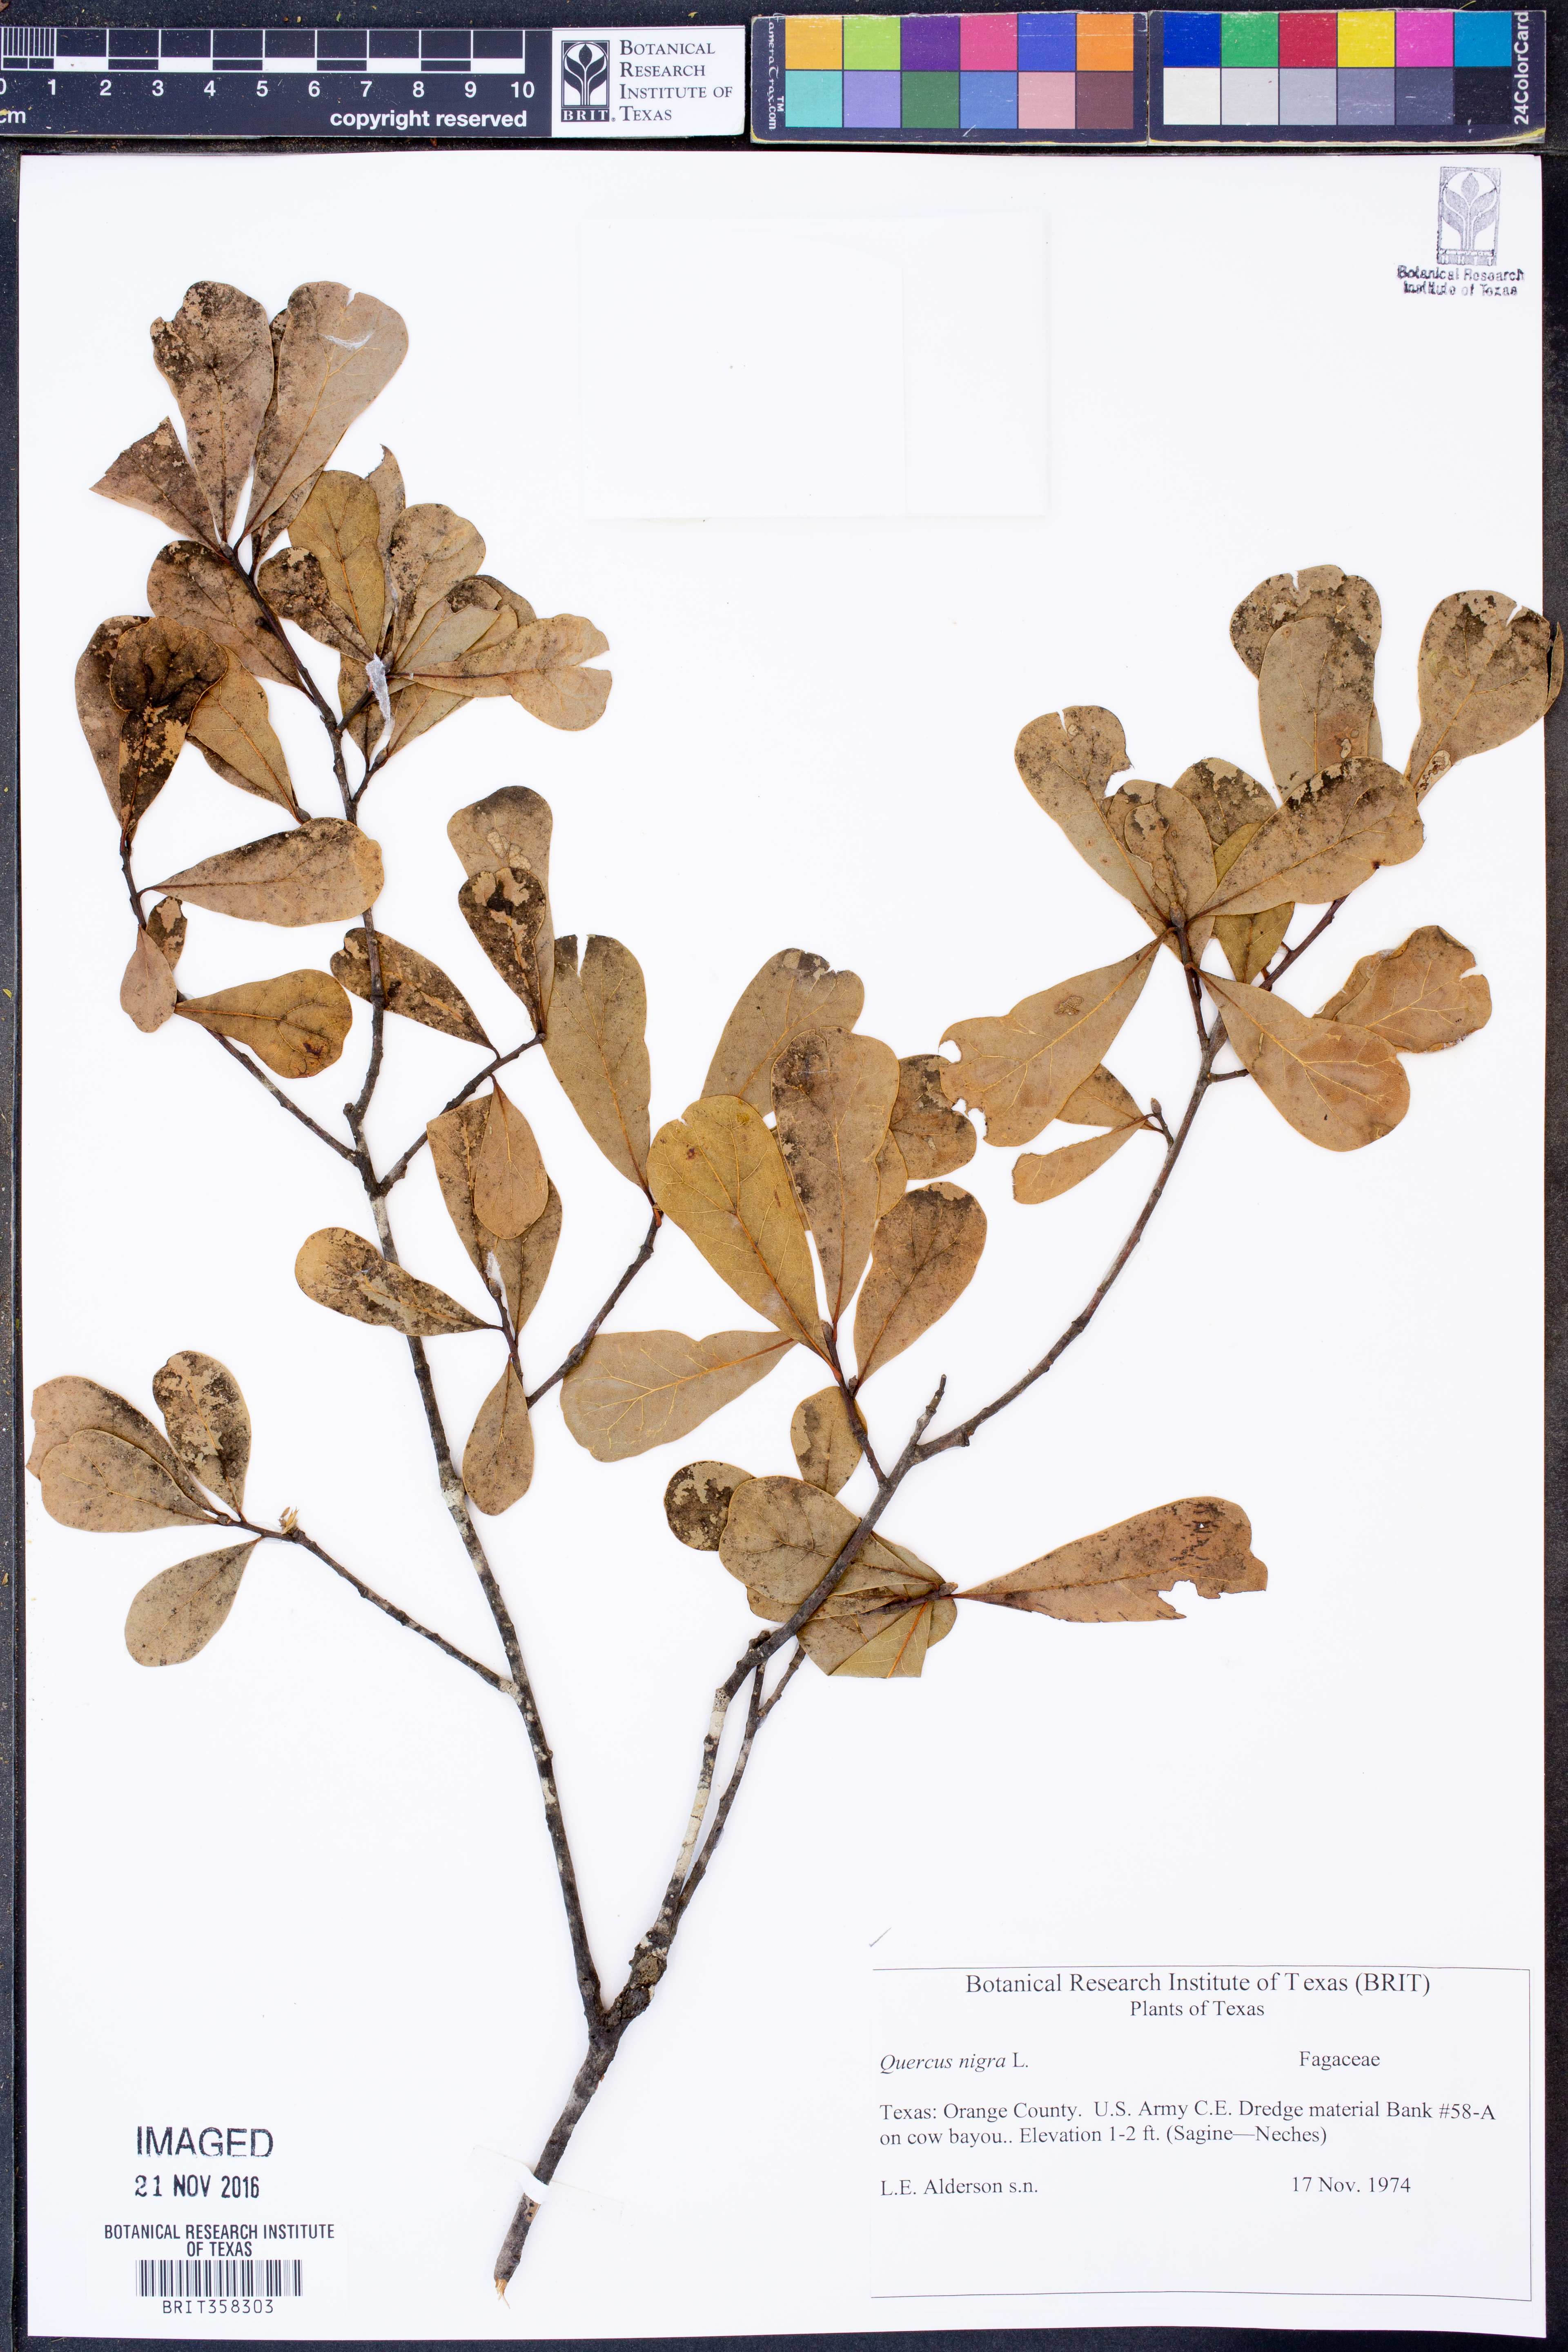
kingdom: Plantae
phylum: Tracheophyta
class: Magnoliopsida
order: Fagales
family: Fagaceae
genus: Quercus
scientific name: Quercus nigra
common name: Water oak
